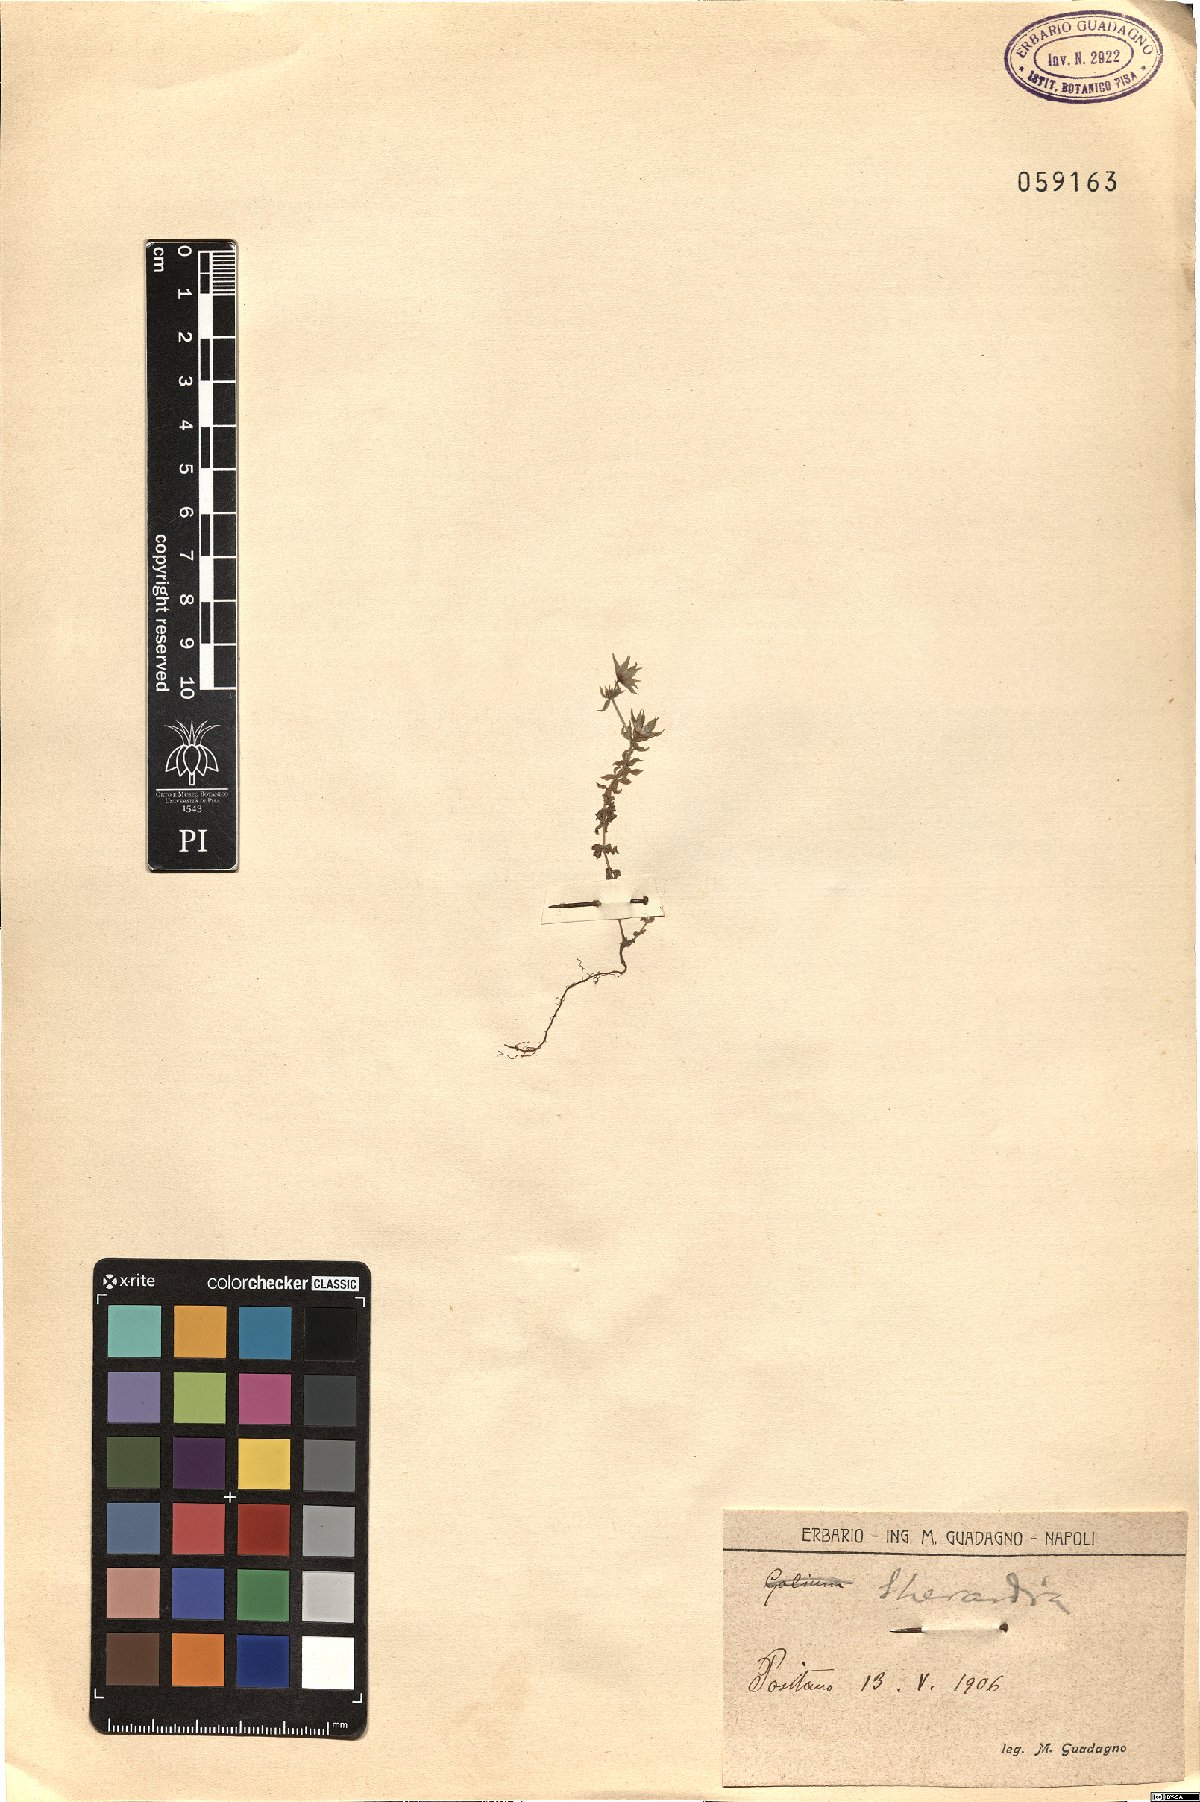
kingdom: Plantae
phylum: Tracheophyta
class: Magnoliopsida
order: Gentianales
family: Rubiaceae
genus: Sherardia
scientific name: Sherardia
